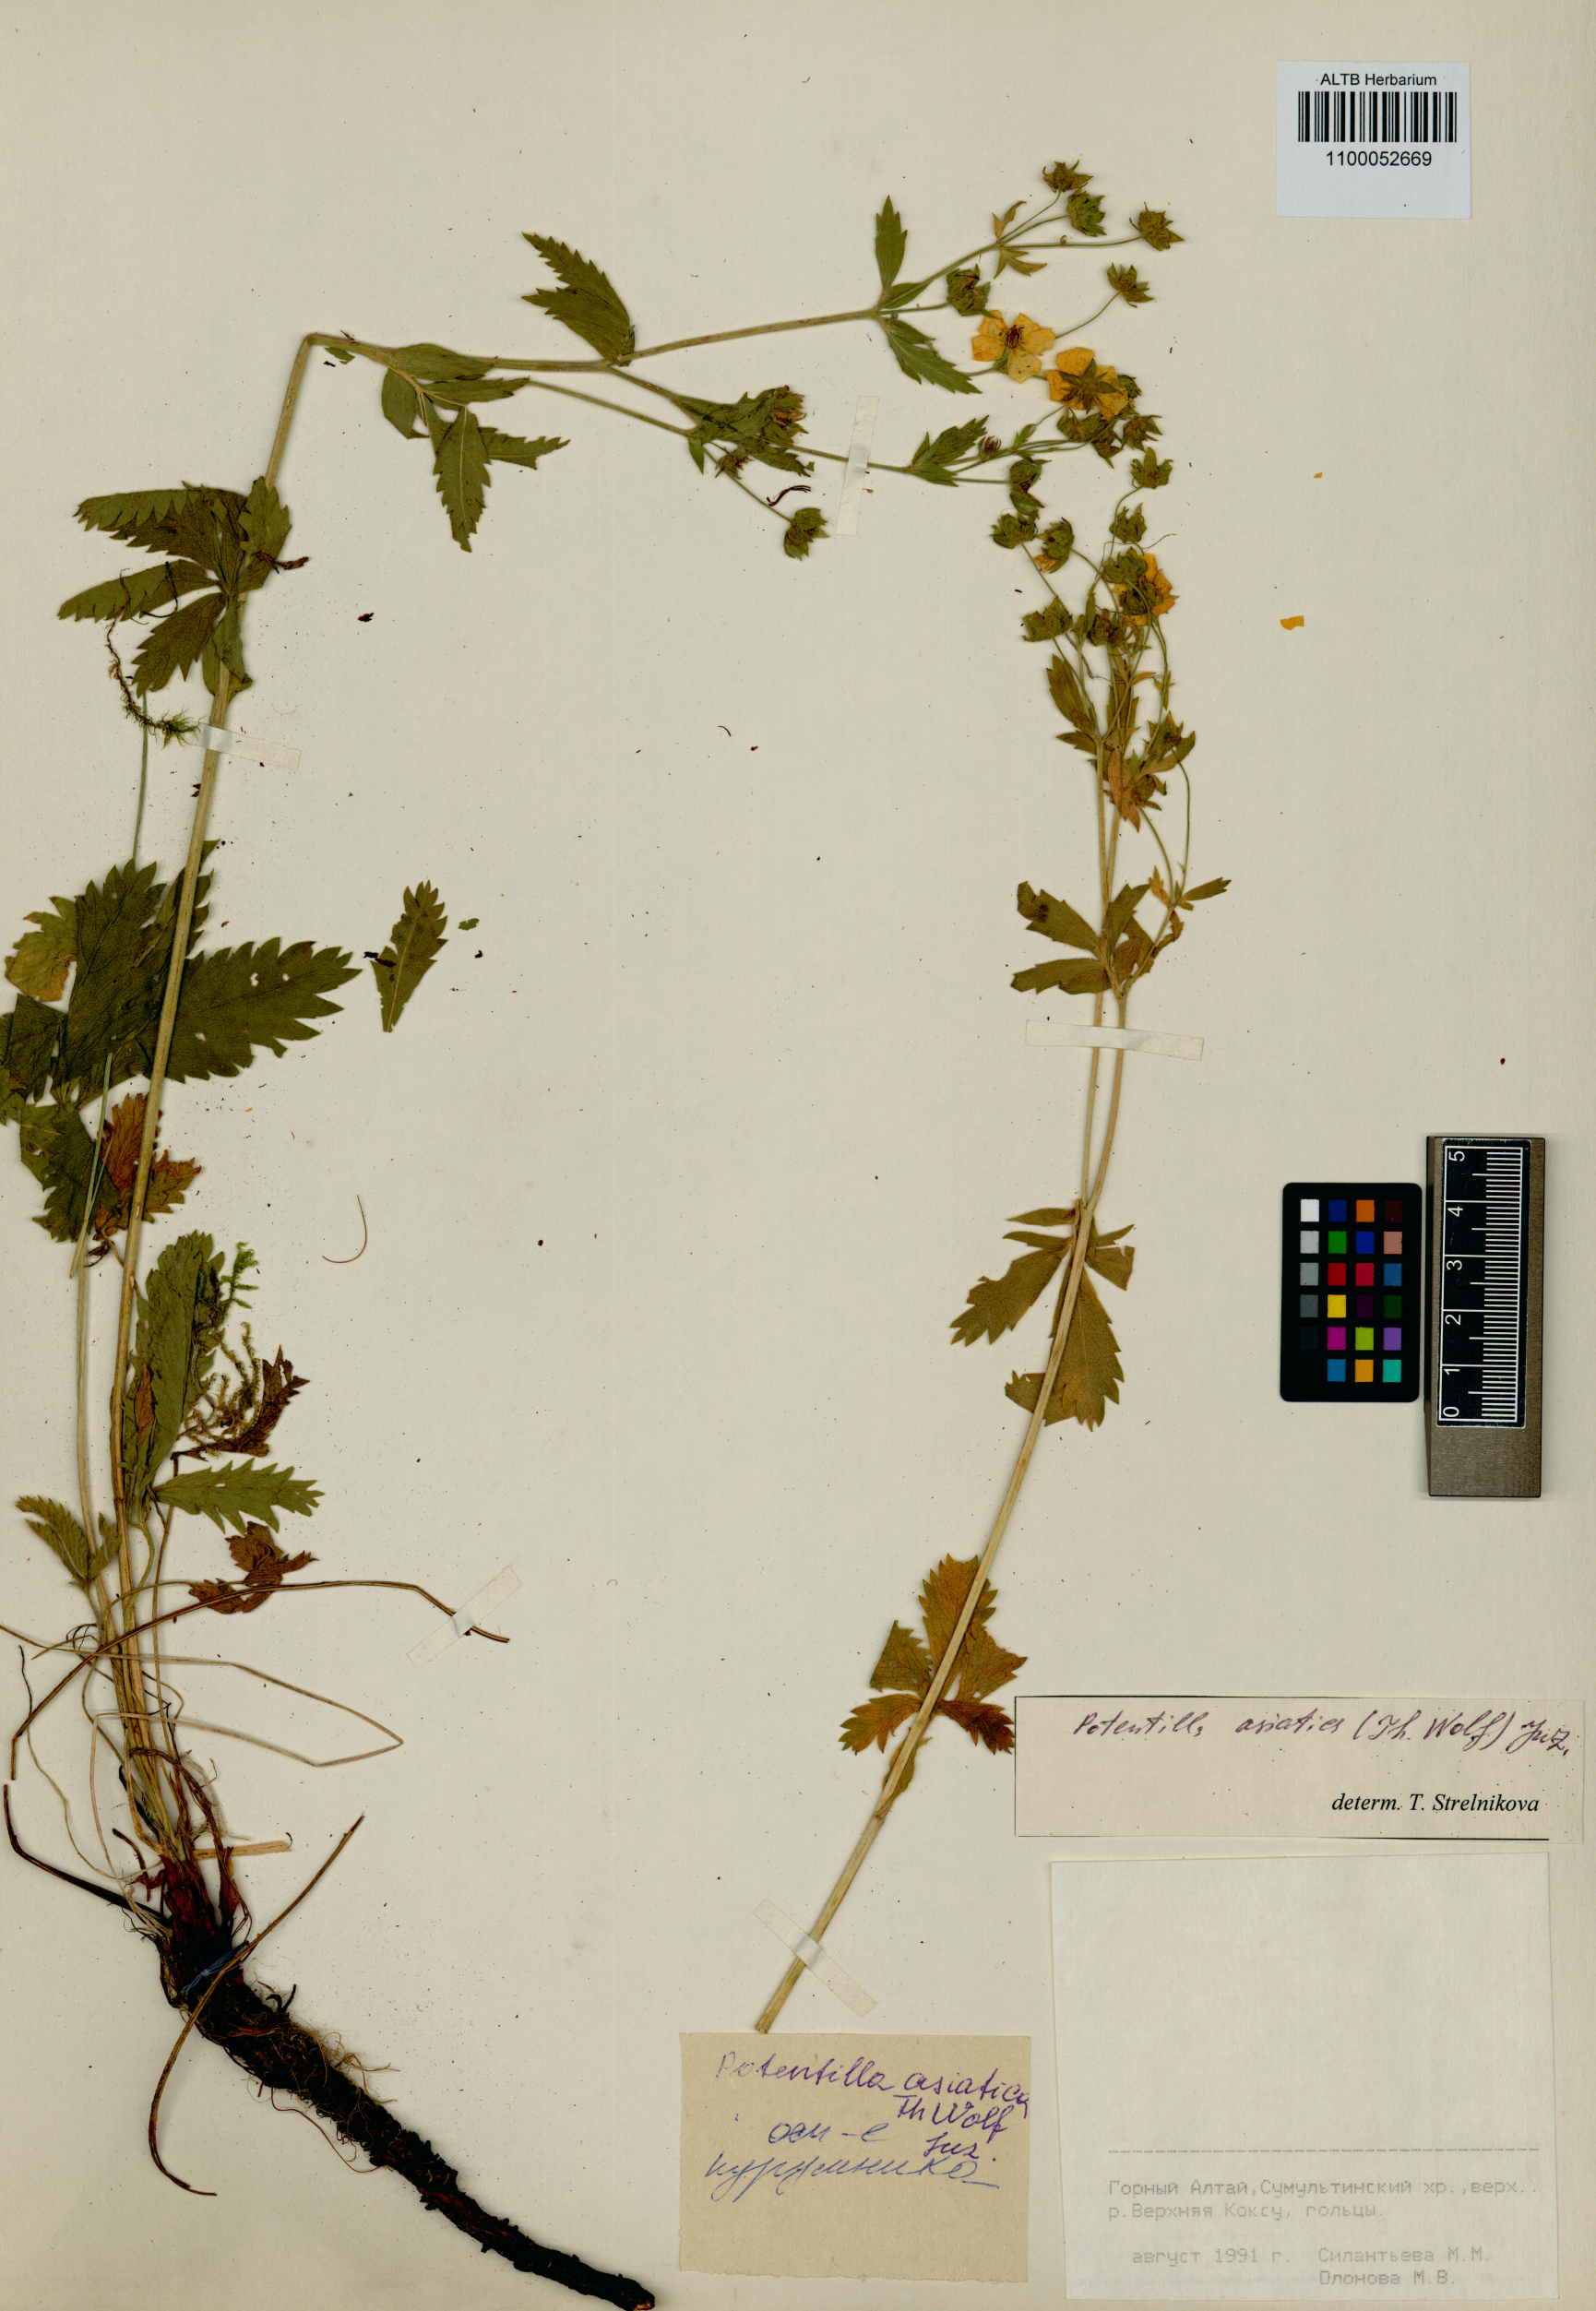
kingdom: Plantae
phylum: Tracheophyta
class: Magnoliopsida
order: Rosales
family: Rosaceae
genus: Potentilla
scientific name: Potentilla asiatica
